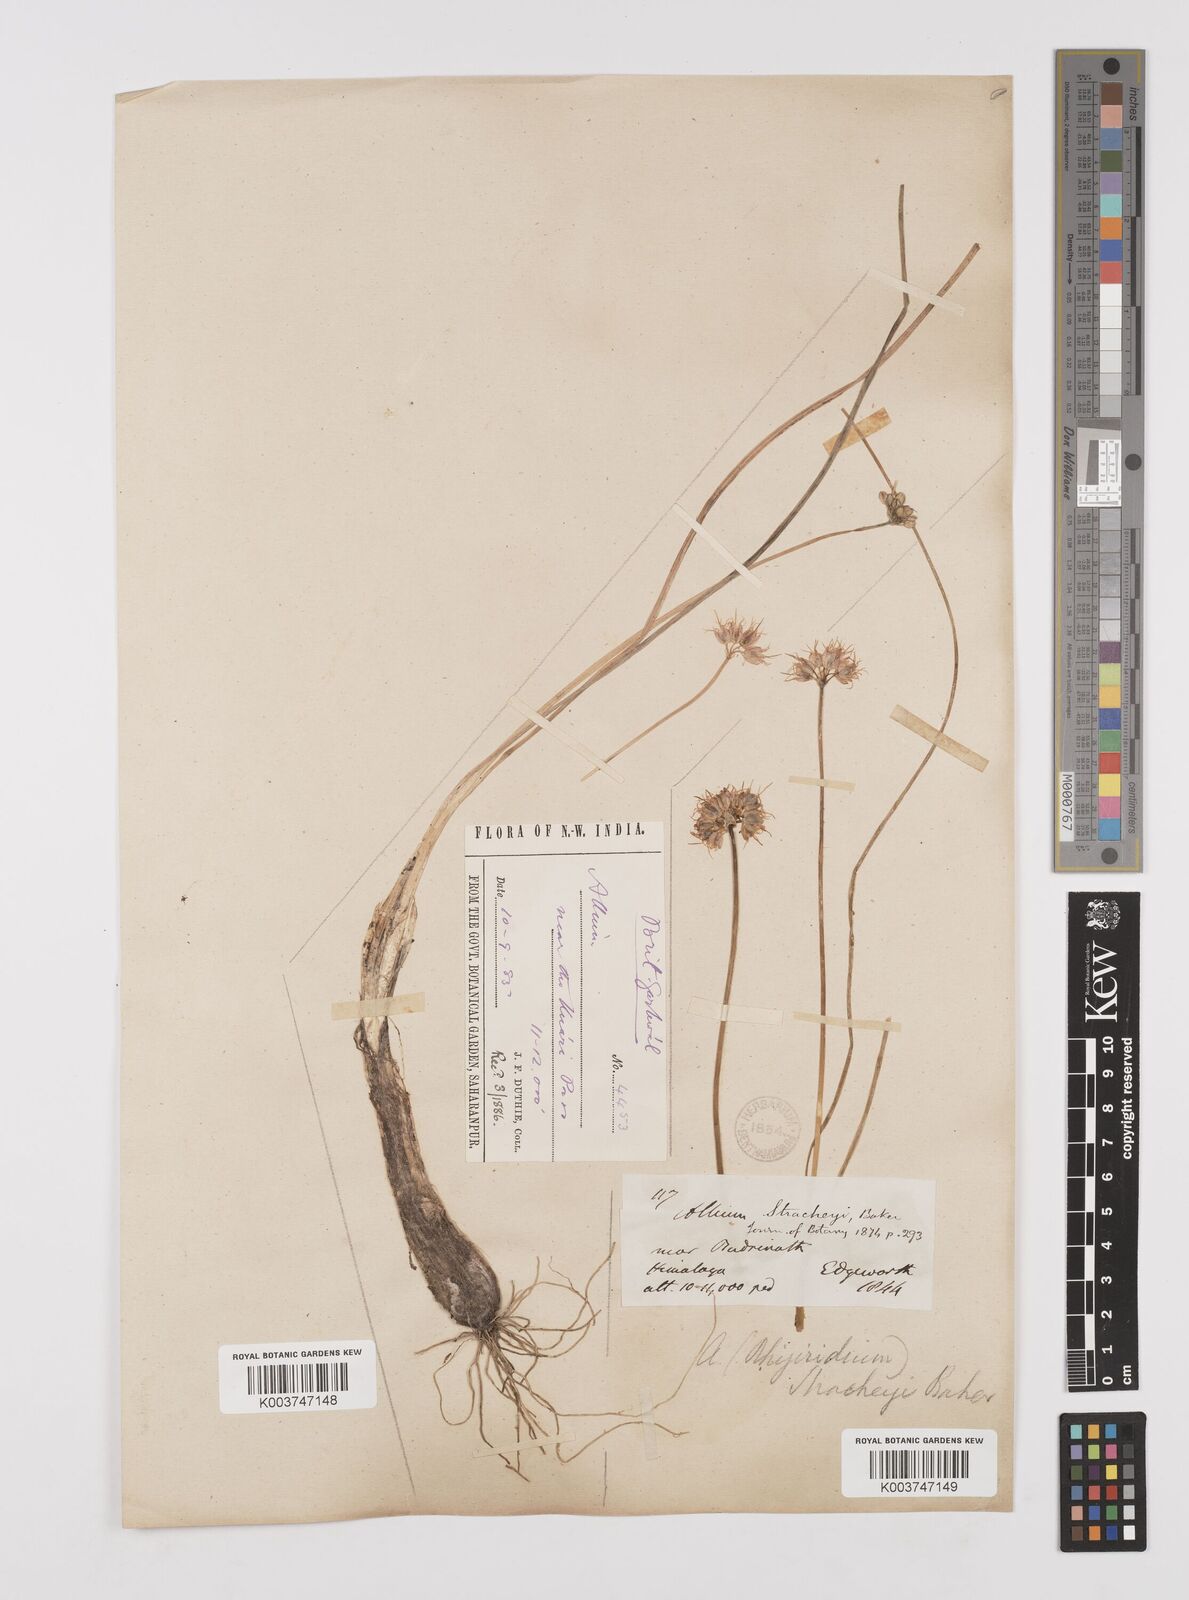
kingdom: Plantae
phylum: Tracheophyta
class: Liliopsida
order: Asparagales
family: Amaryllidaceae
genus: Allium
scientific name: Allium stracheyi
